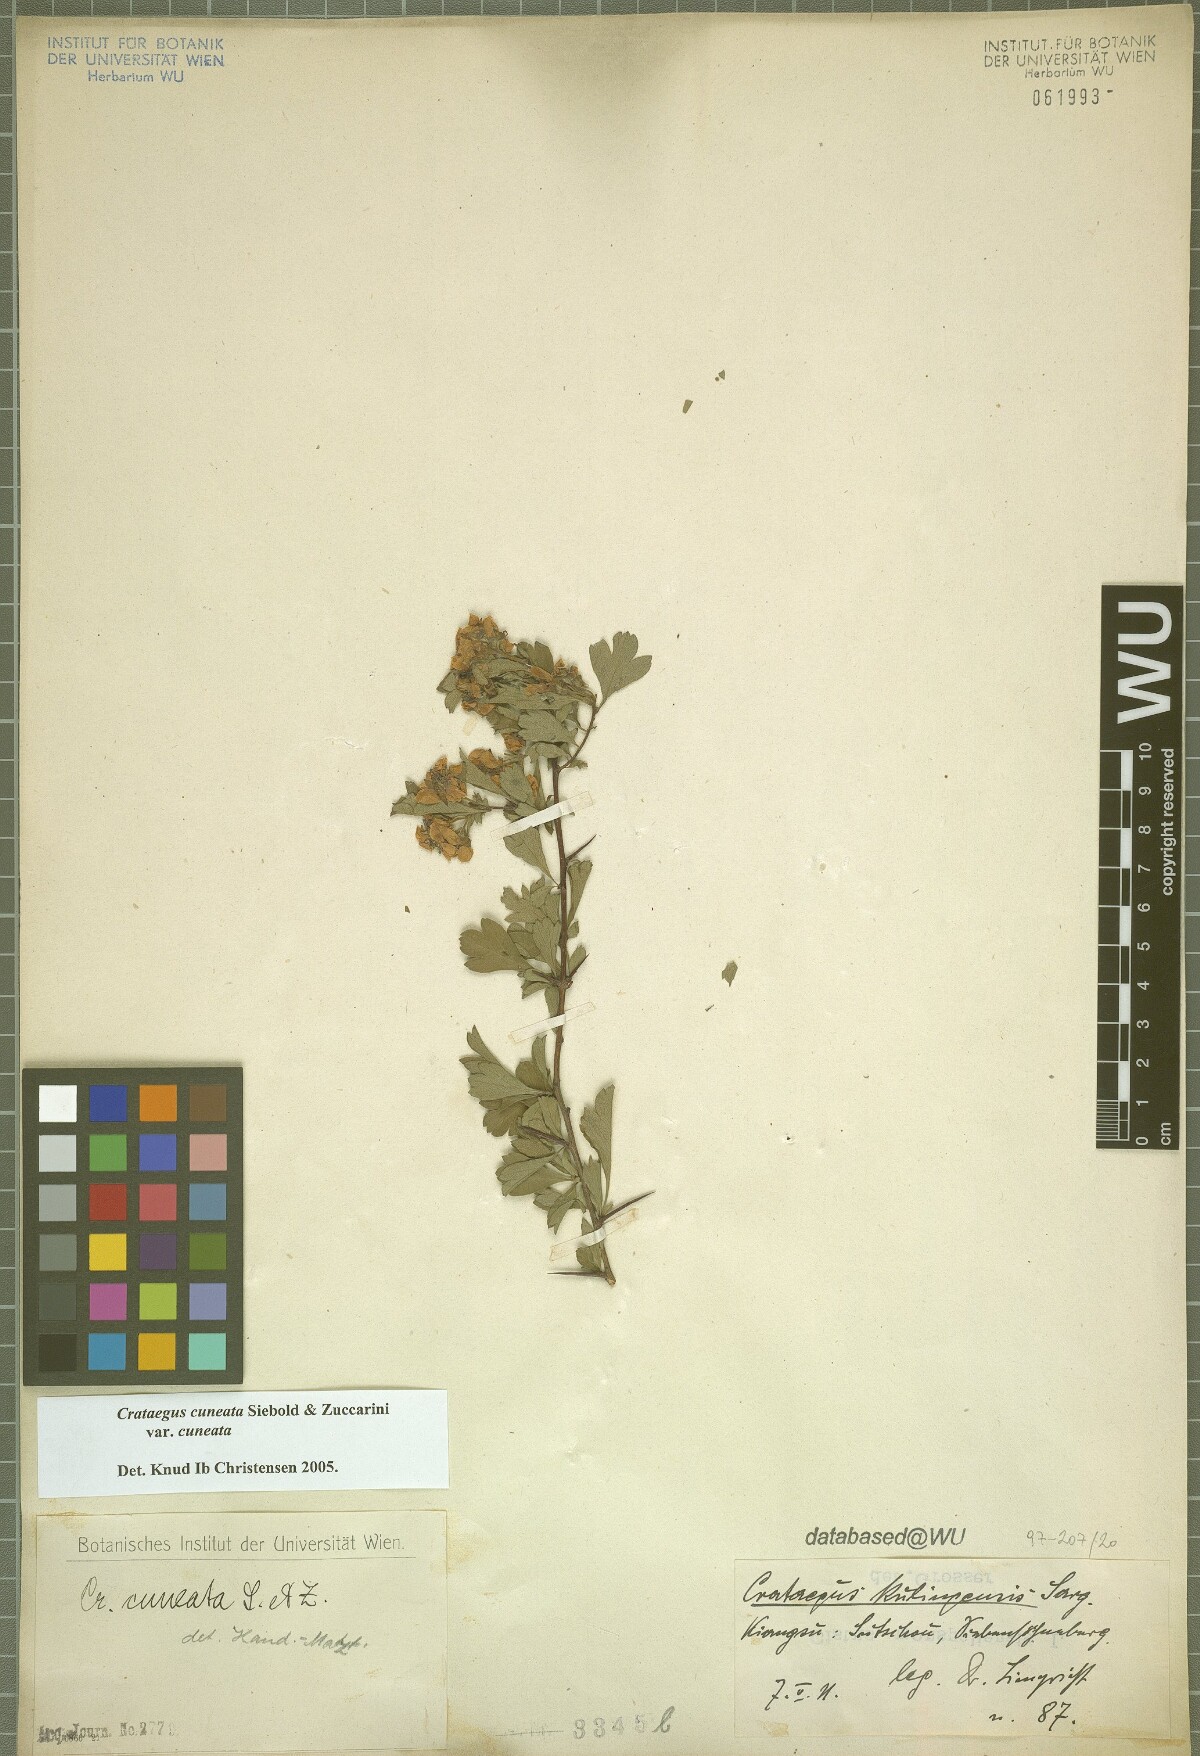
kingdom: Plantae
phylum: Tracheophyta
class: Magnoliopsida
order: Rosales
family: Rosaceae
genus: Crataegus
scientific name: Crataegus cuneata
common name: Chinese hawthorn
